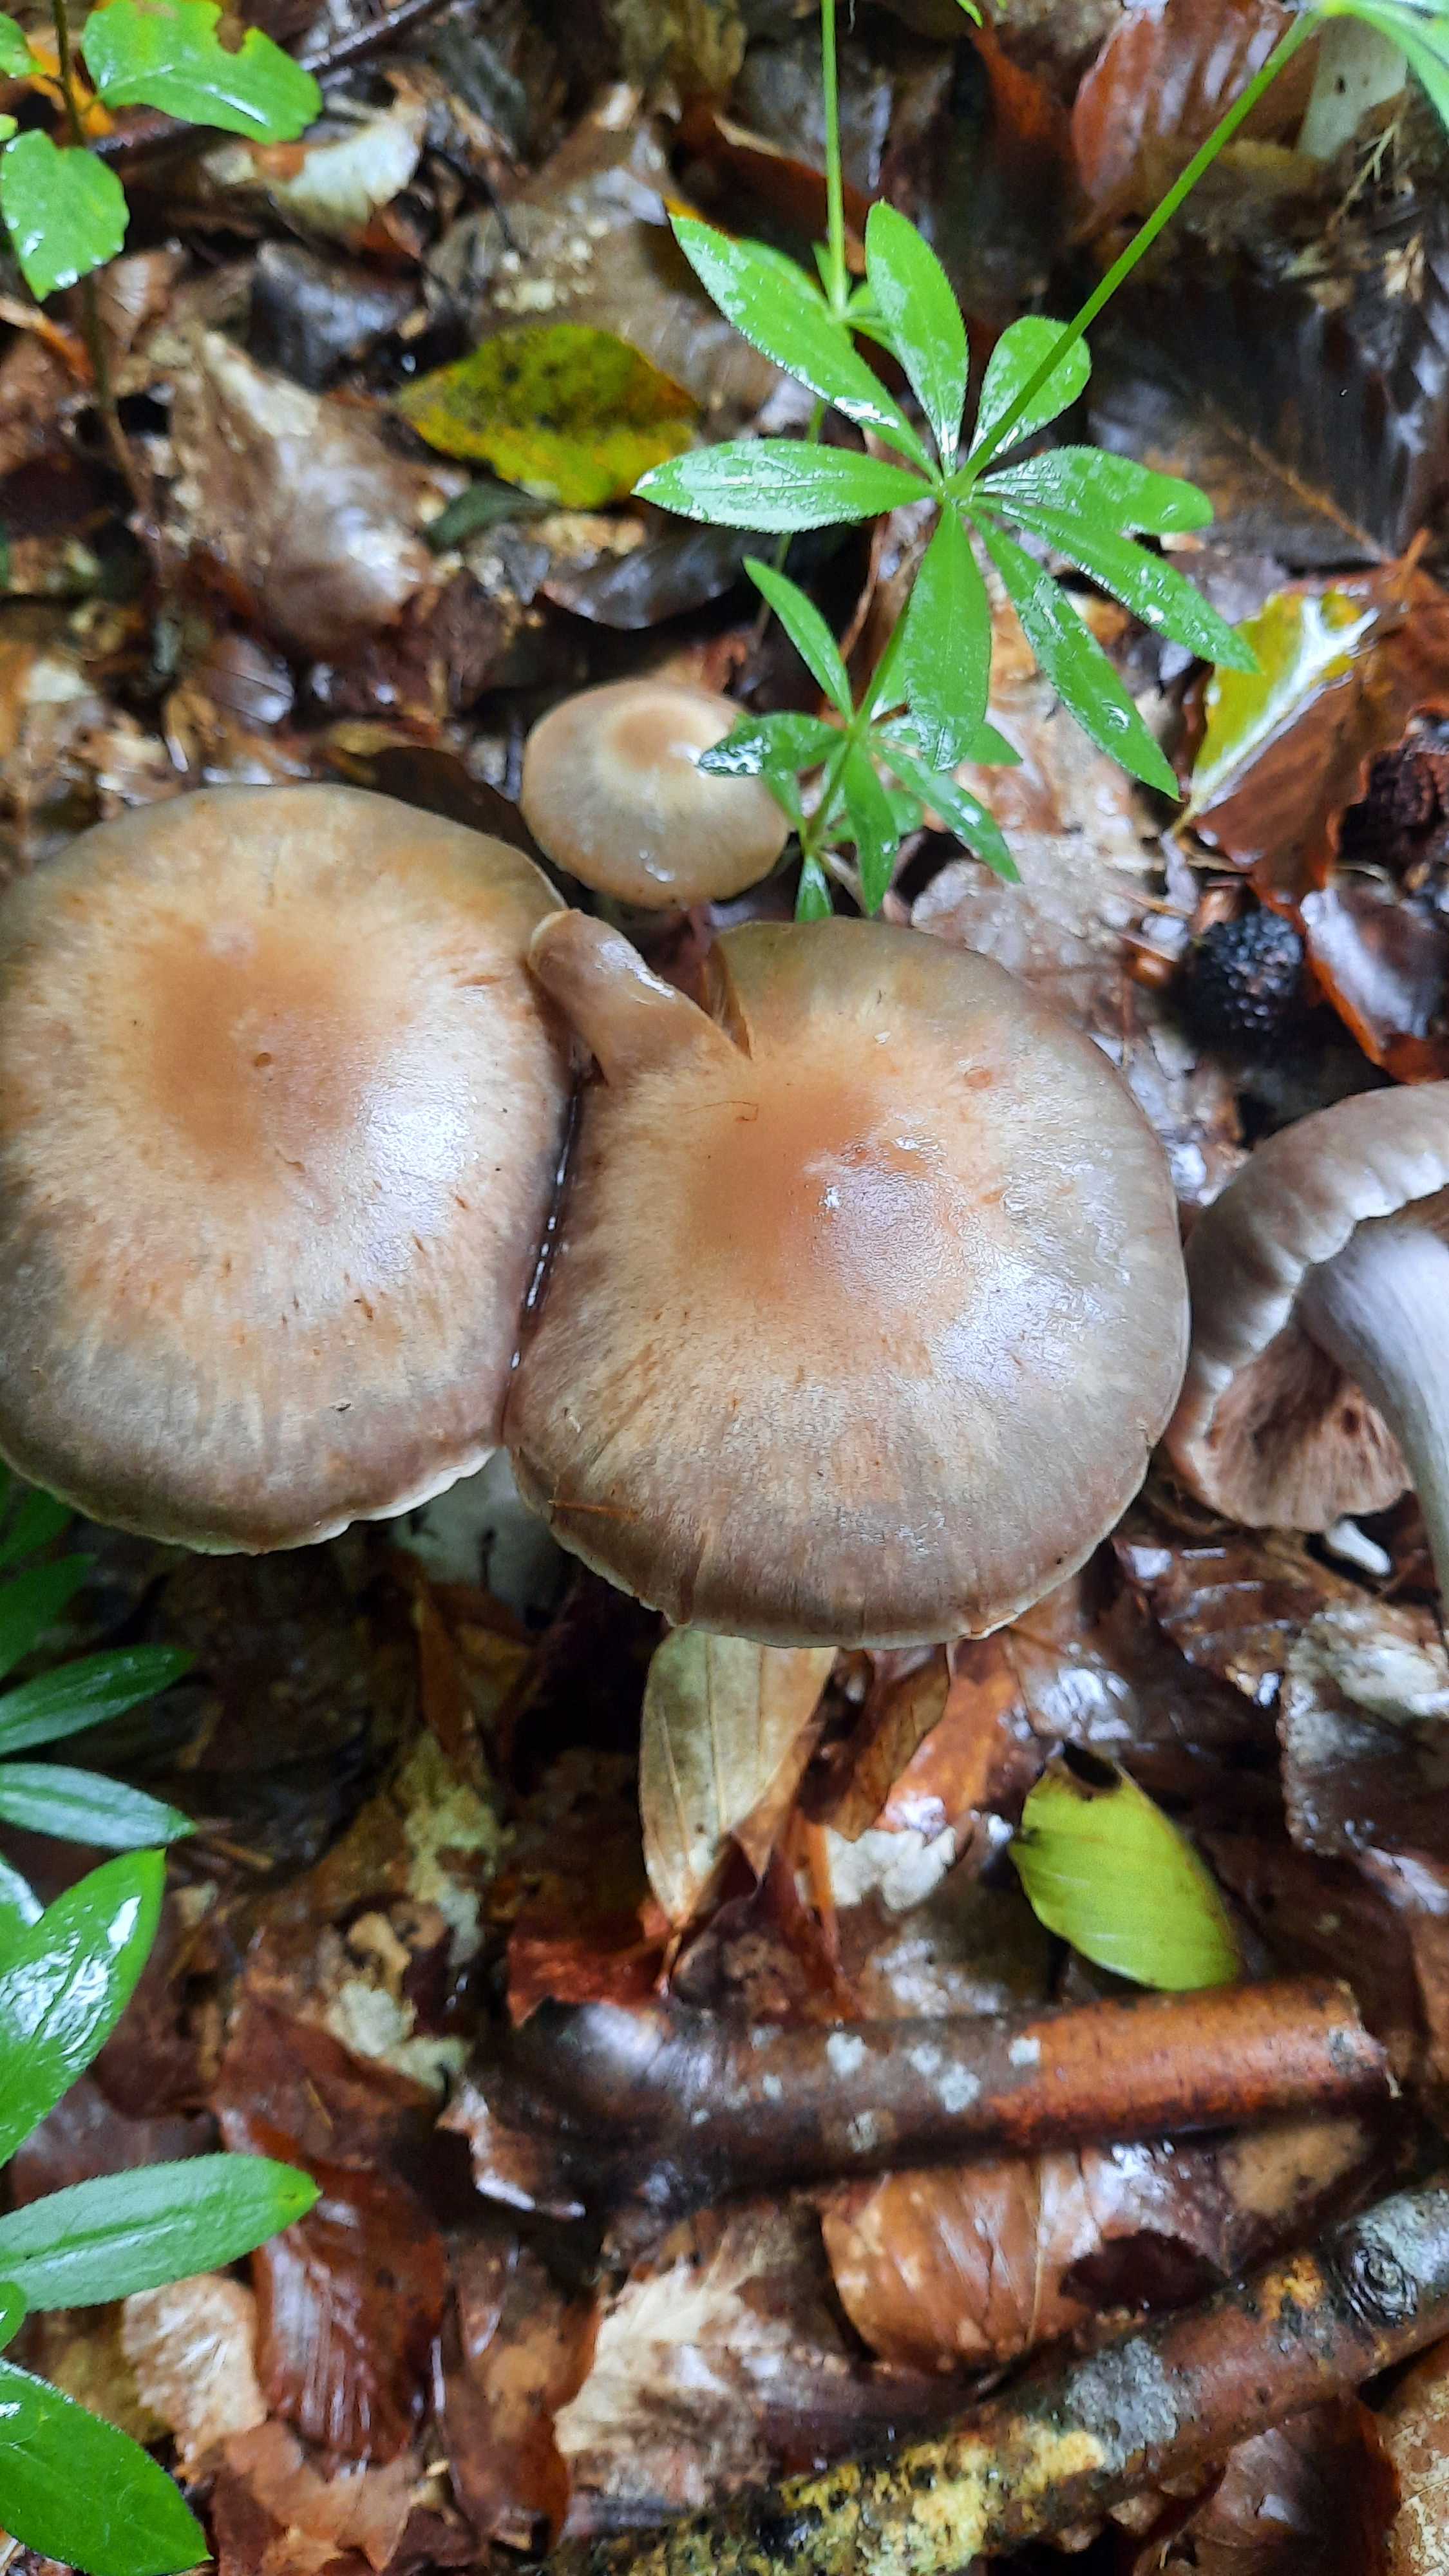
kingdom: Fungi
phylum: Basidiomycota
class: Agaricomycetes
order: Agaricales
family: Cortinariaceae
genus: Cortinarius
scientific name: Cortinarius
